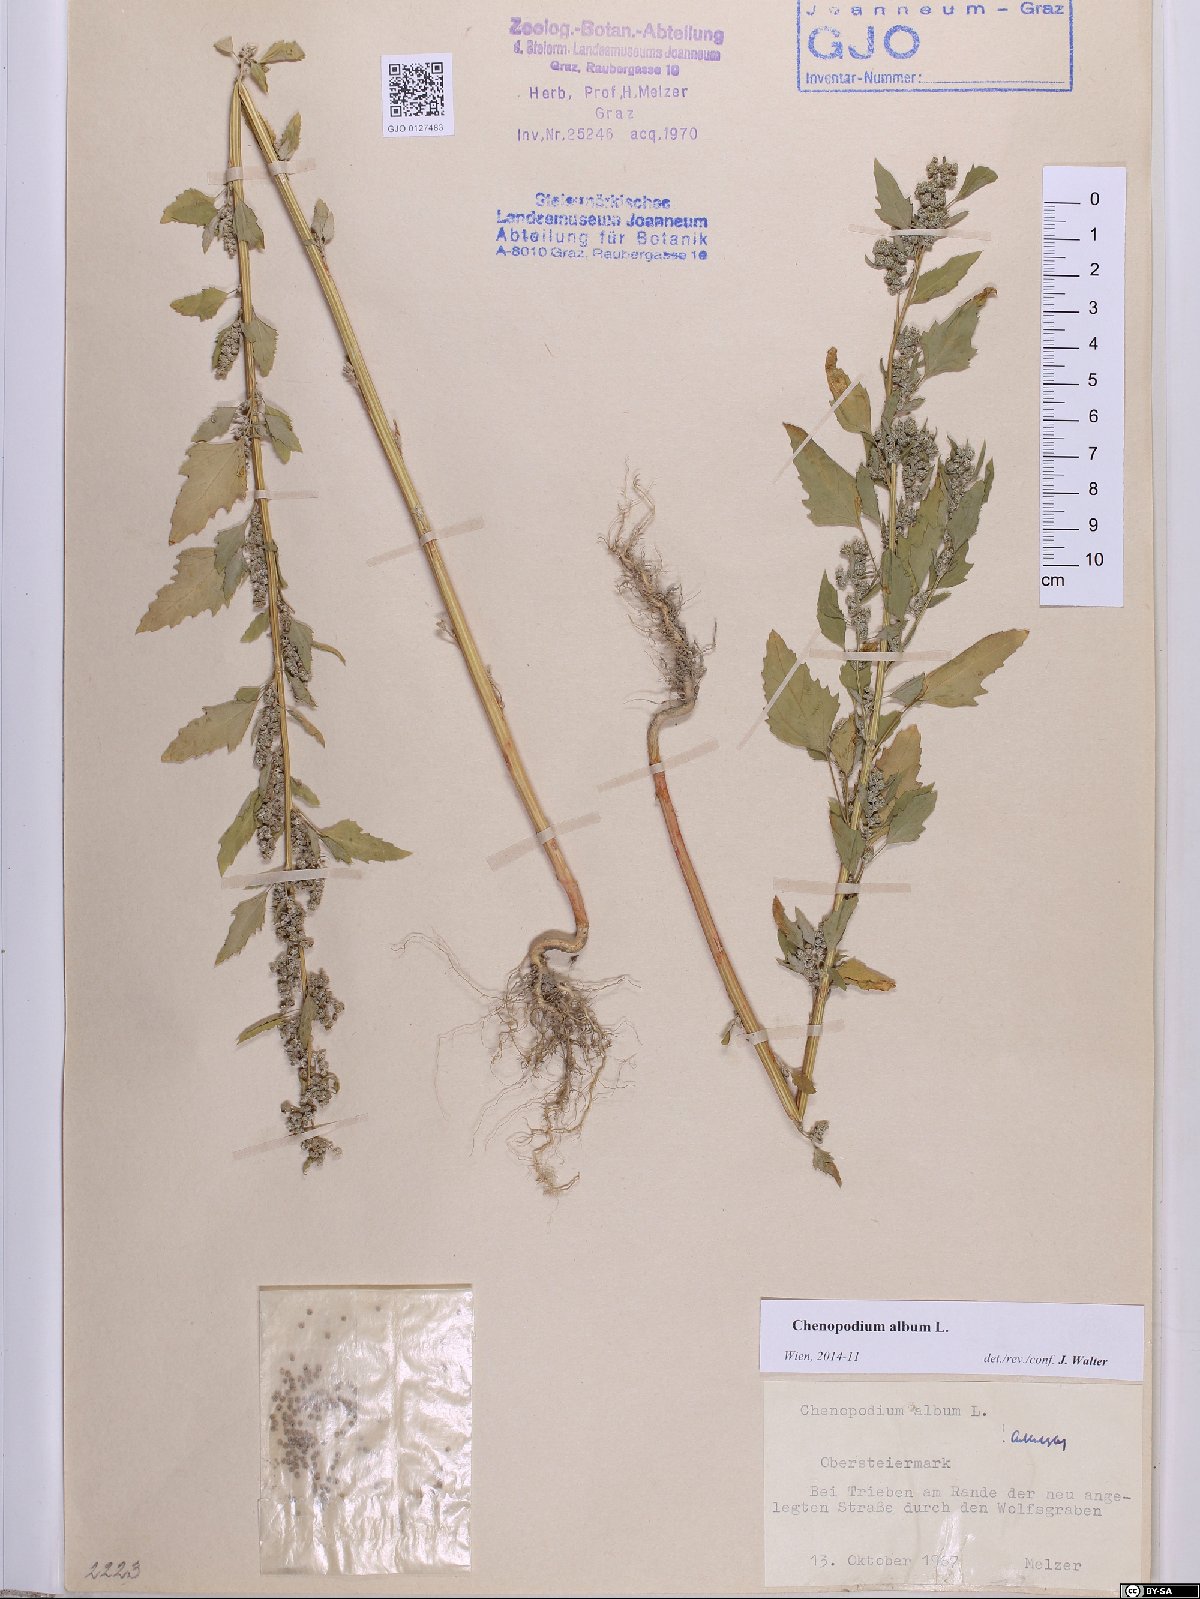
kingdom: Plantae
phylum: Tracheophyta
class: Magnoliopsida
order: Caryophyllales
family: Amaranthaceae
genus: Chenopodium
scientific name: Chenopodium album
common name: Fat-hen
